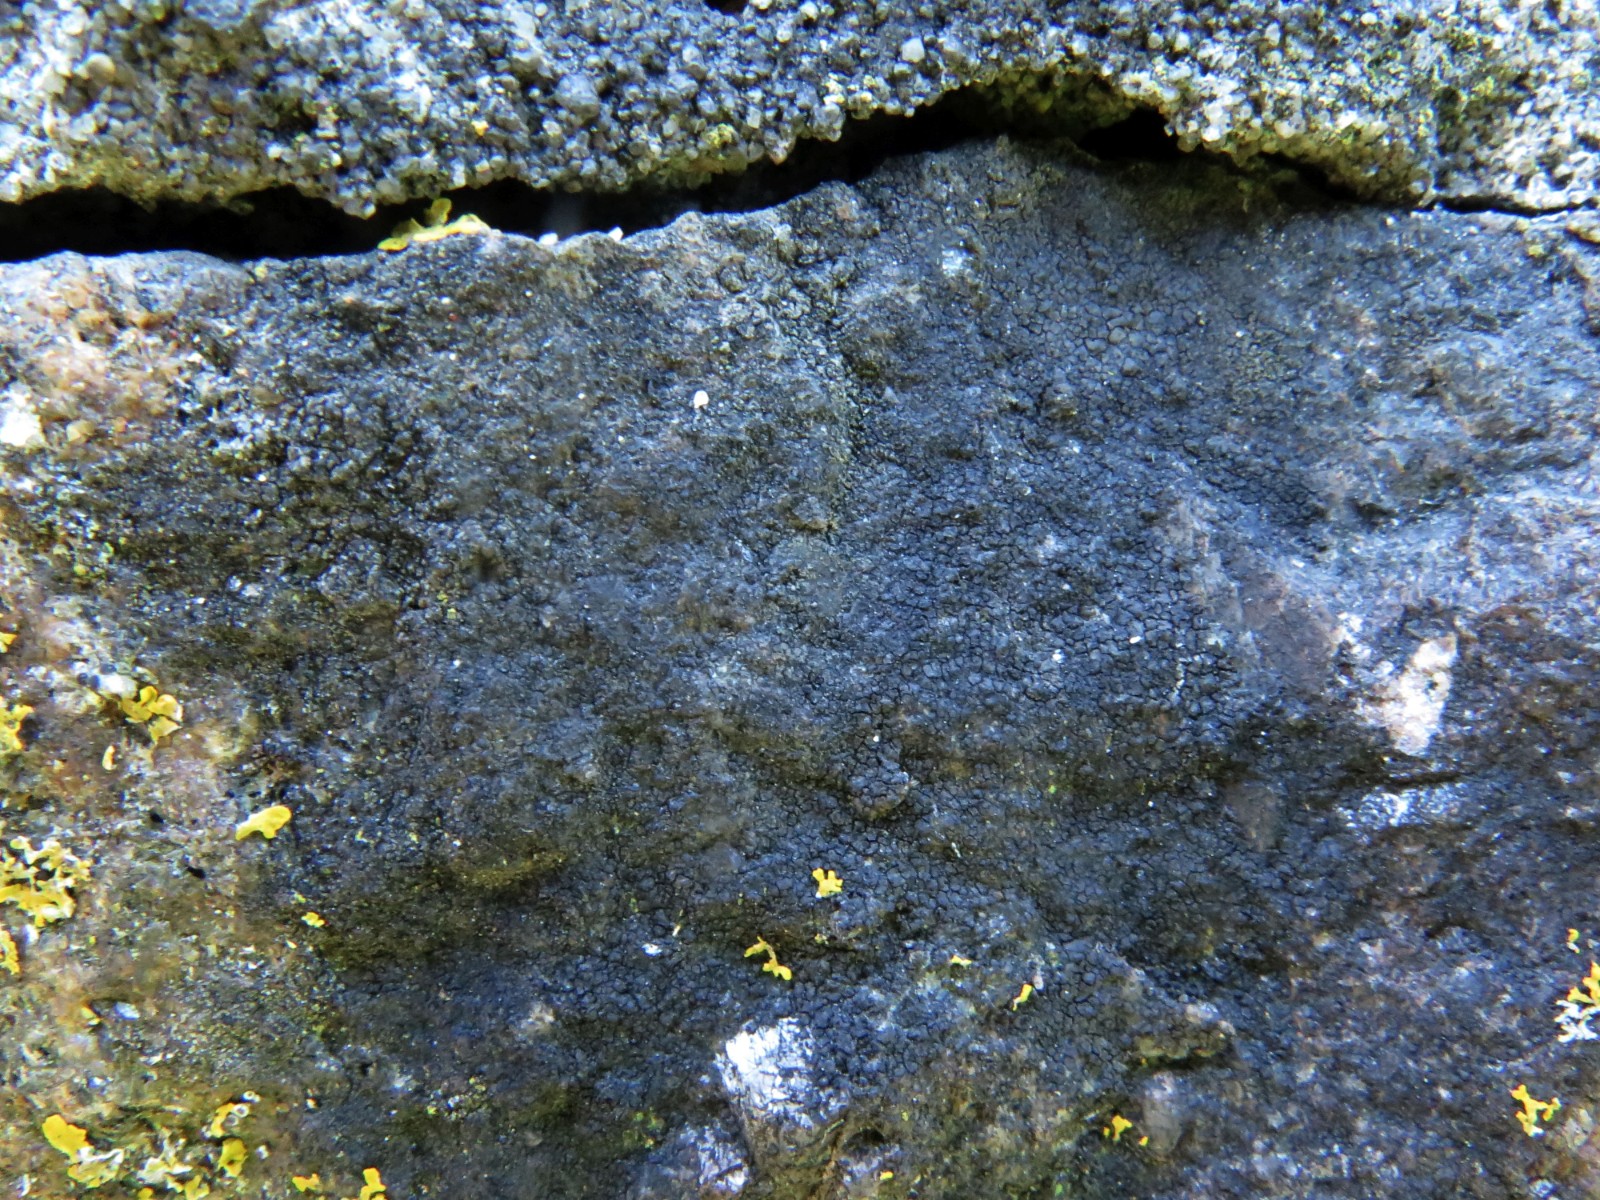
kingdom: Fungi
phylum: Ascomycota
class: Eurotiomycetes
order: Verrucariales
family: Verrucariaceae
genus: Verrucaria
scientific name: Verrucaria nigrescens
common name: sortbrun vortelav
